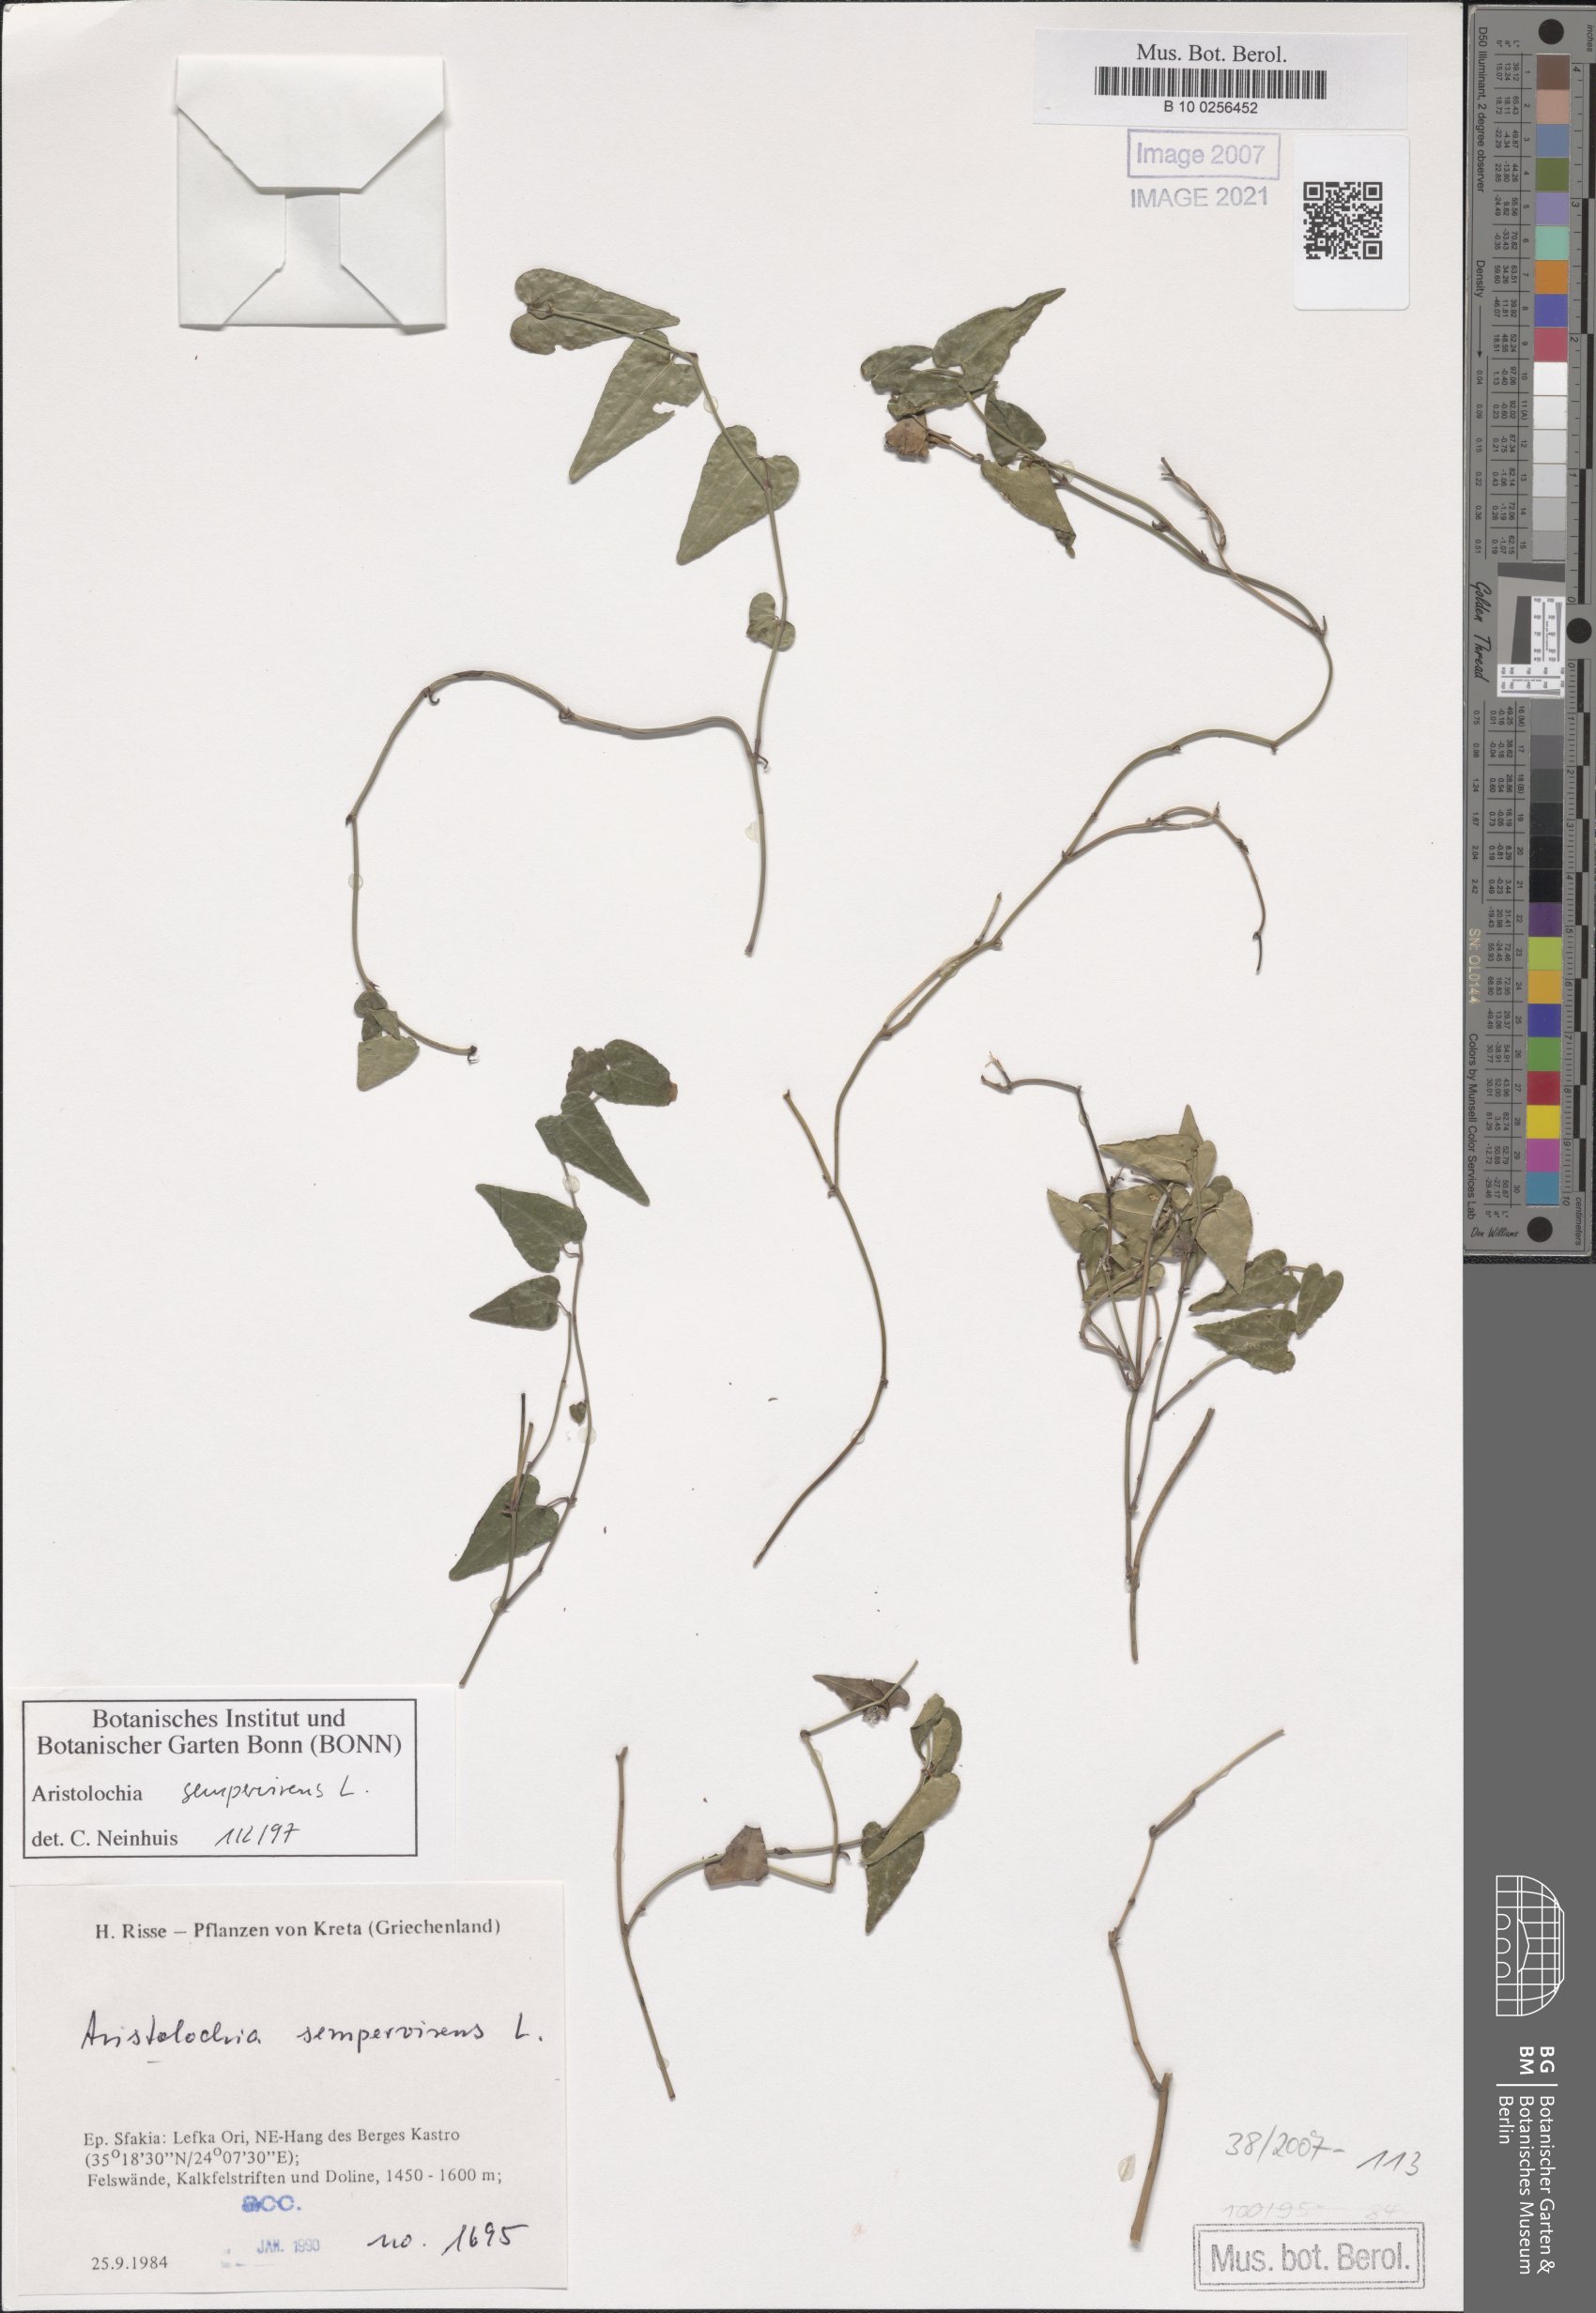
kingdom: Plantae
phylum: Tracheophyta
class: Magnoliopsida
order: Piperales
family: Aristolochiaceae
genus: Aristolochia
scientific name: Aristolochia sempervirens
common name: Long birthwort
